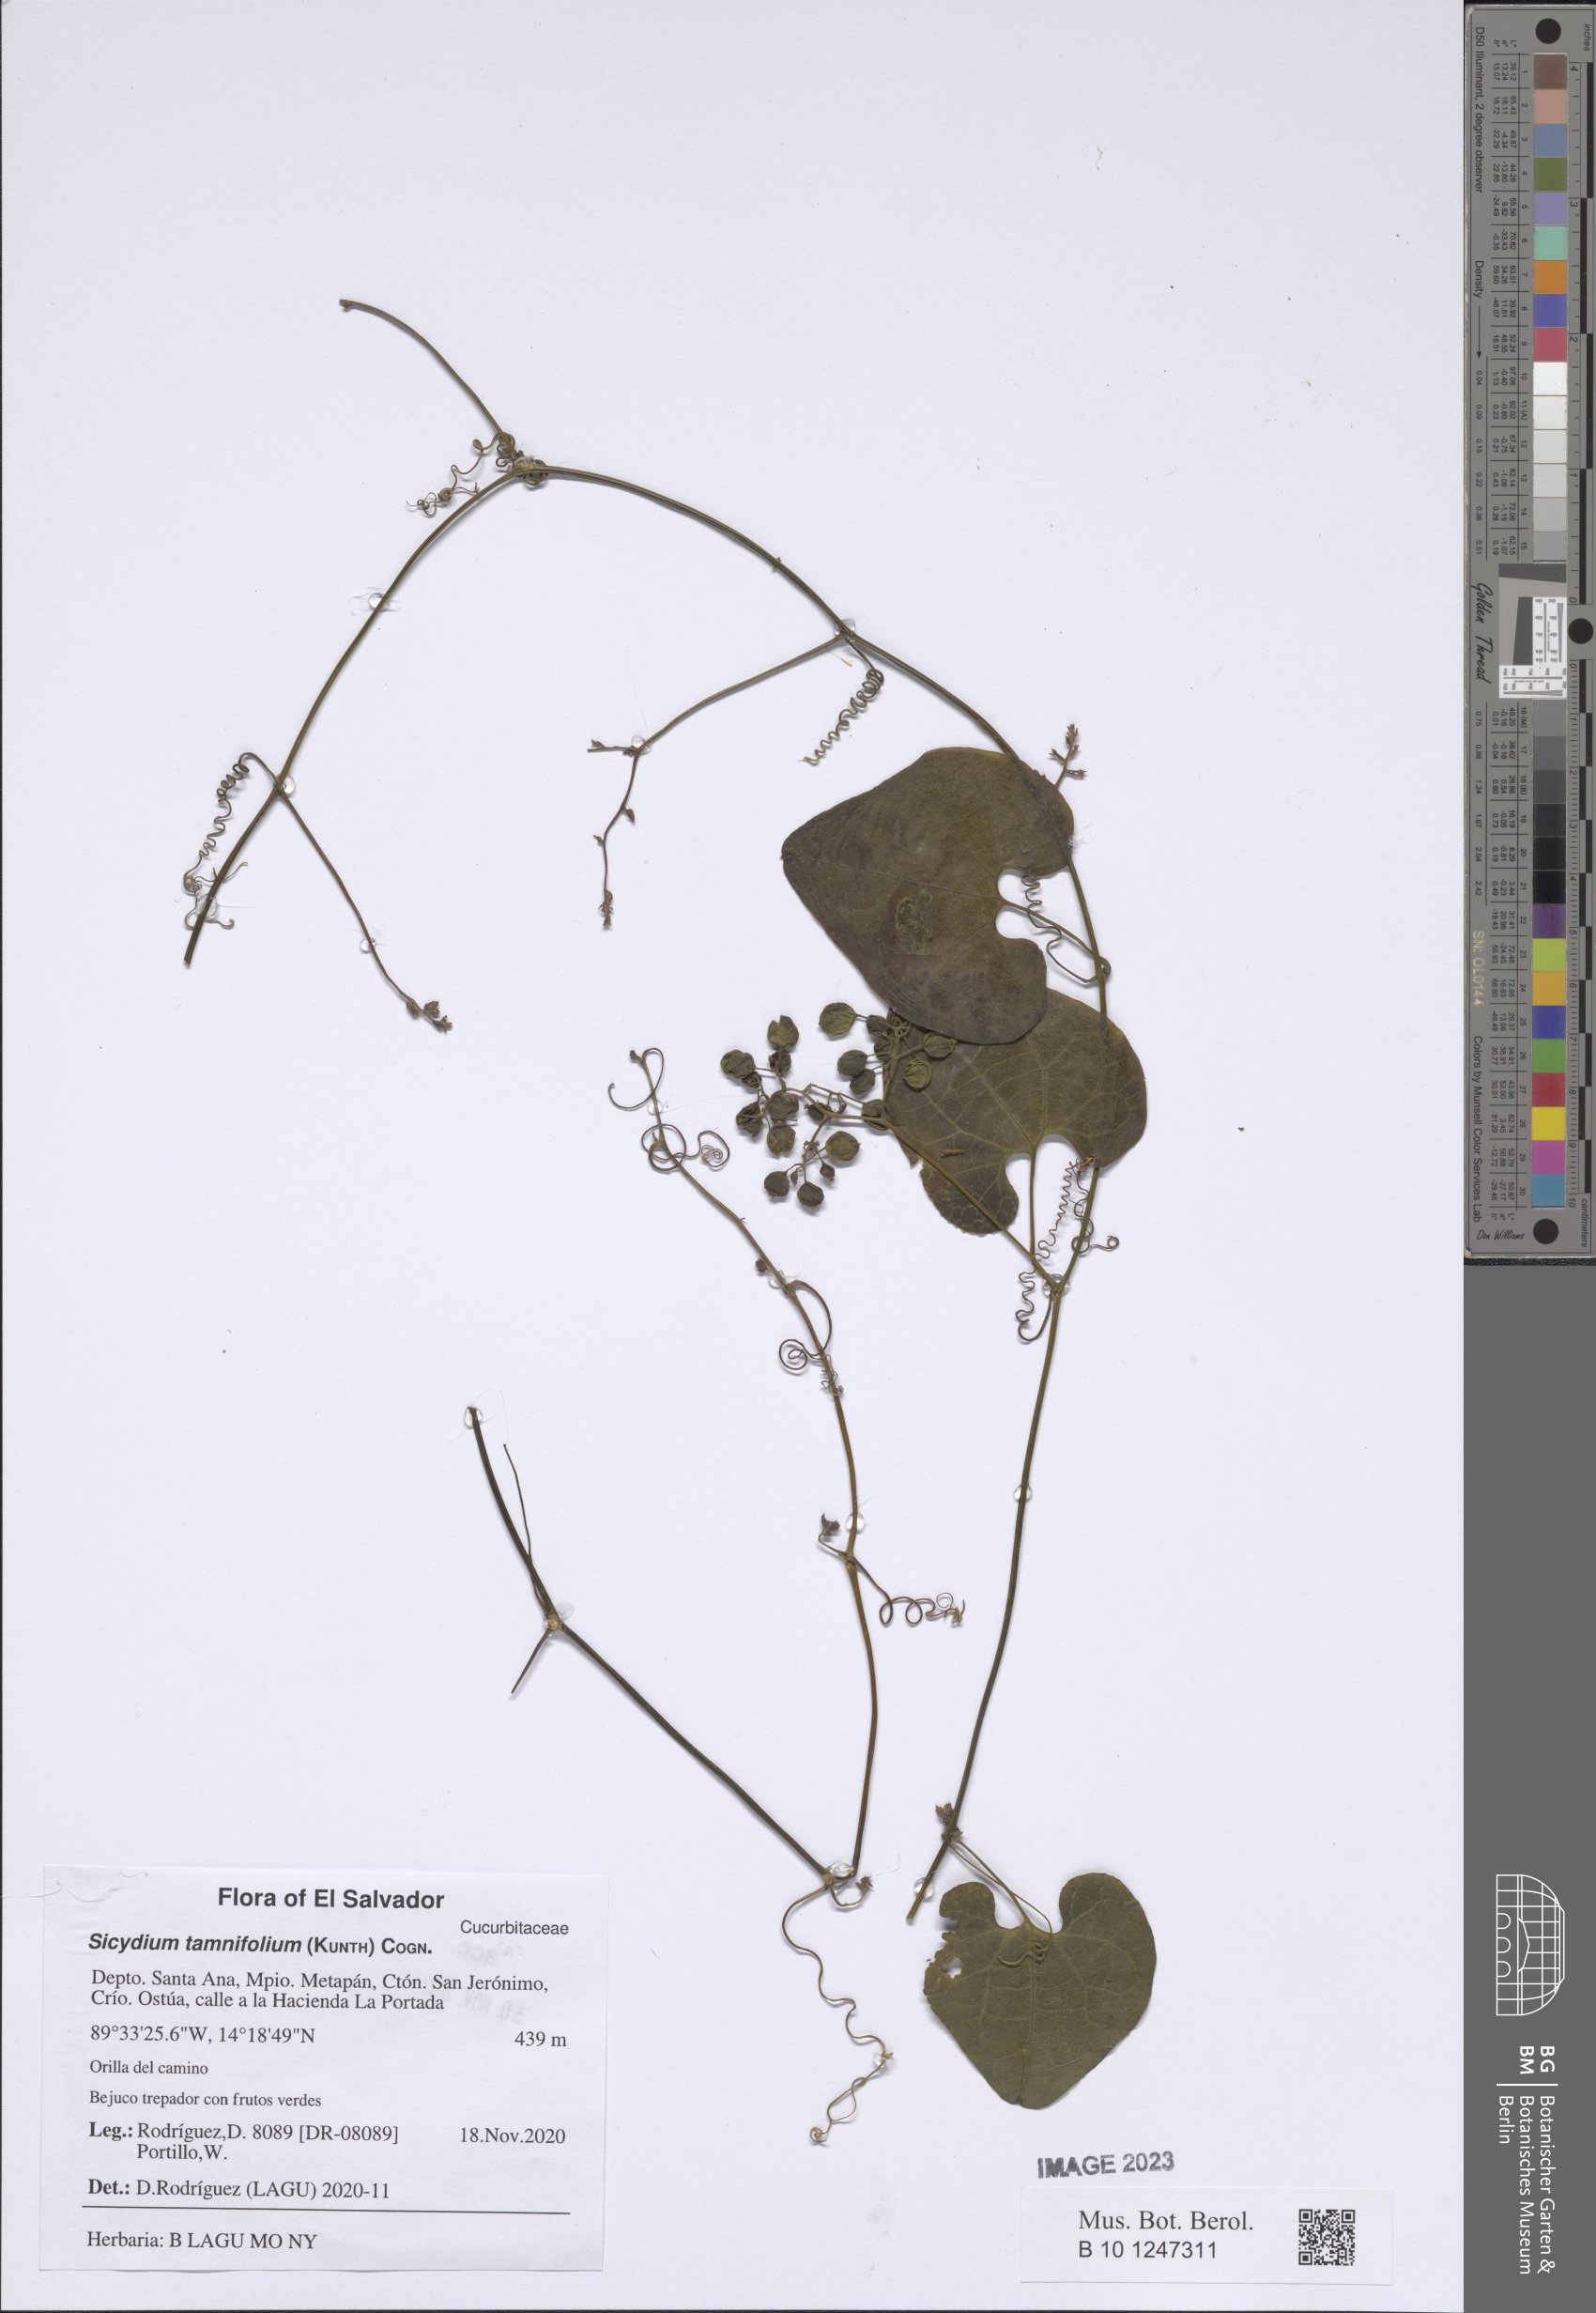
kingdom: Plantae
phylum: Tracheophyta
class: Magnoliopsida
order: Cucurbitales
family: Cucurbitaceae
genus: Sicydium
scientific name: Sicydium tamnifolium
